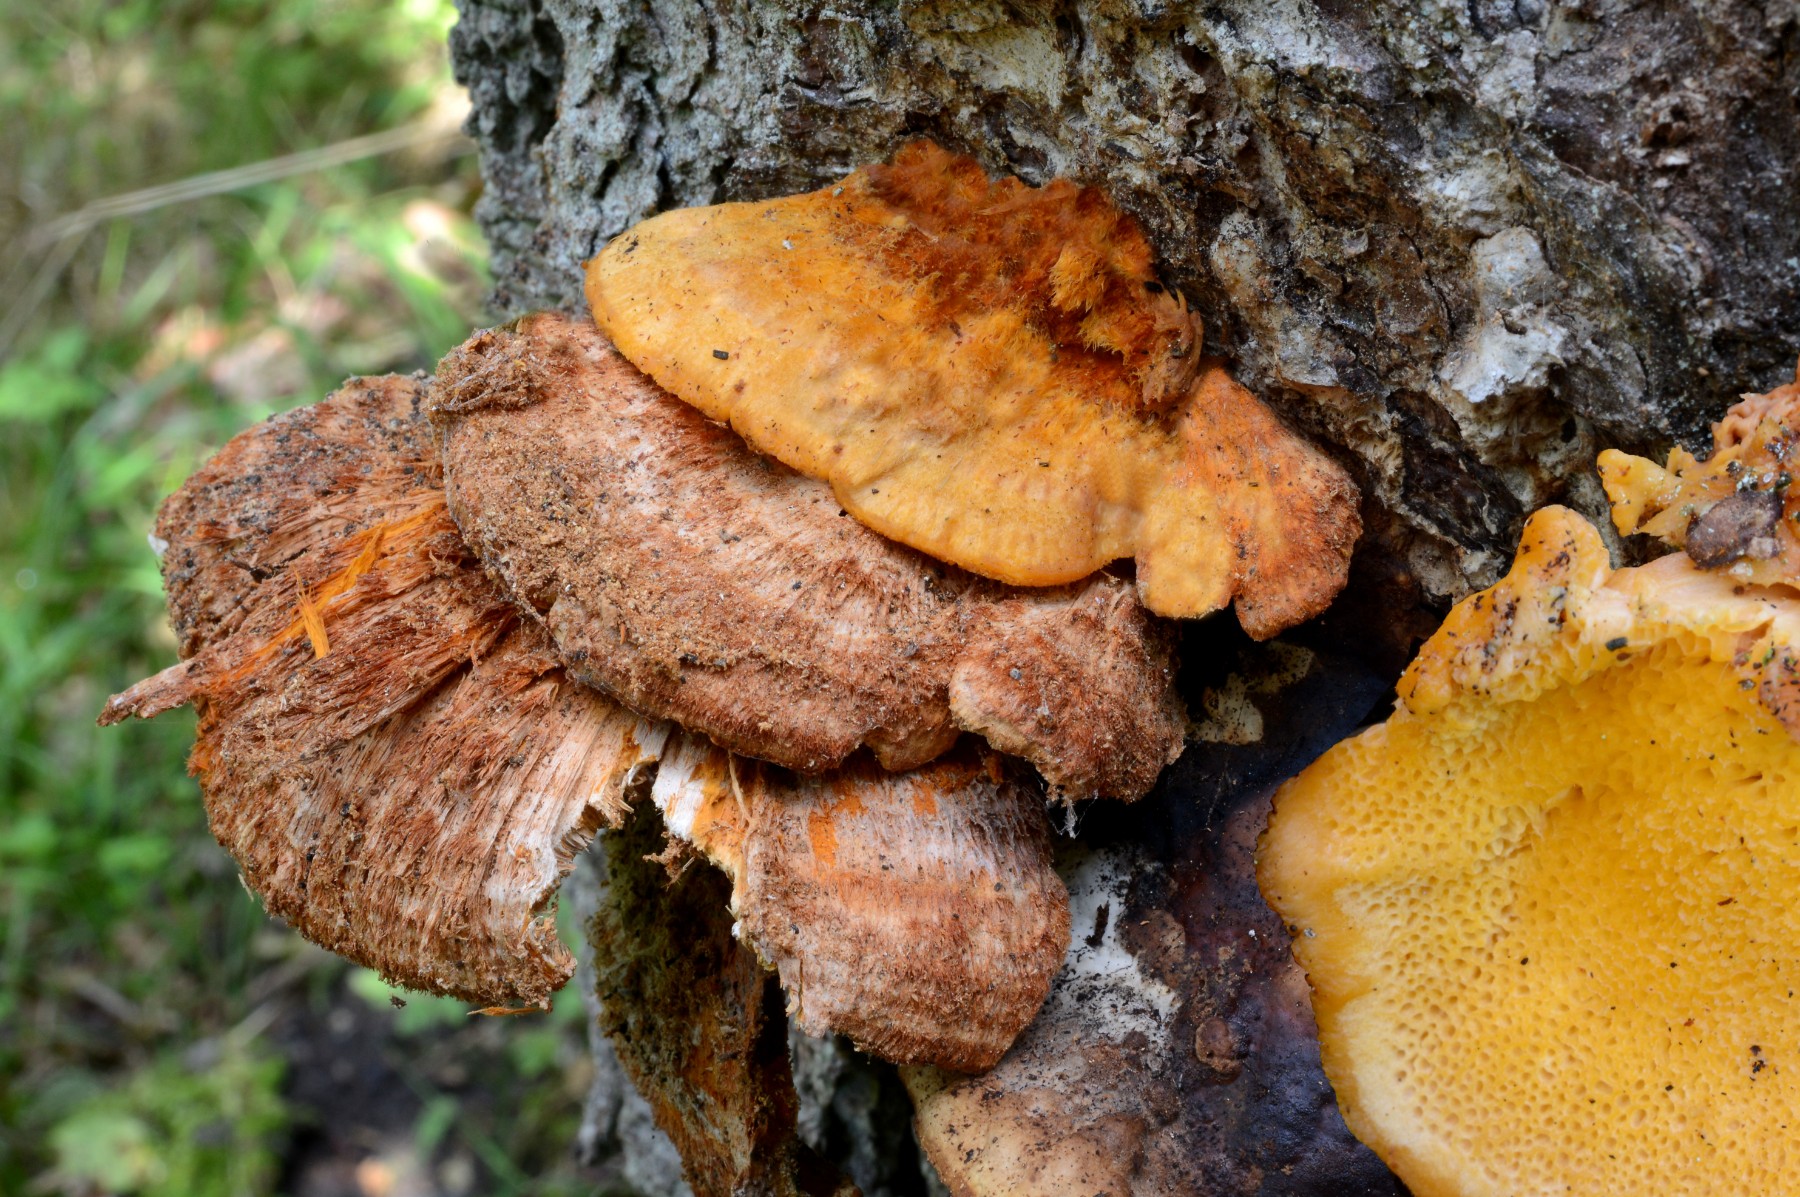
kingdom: Fungi
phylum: Basidiomycota
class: Agaricomycetes
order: Polyporales
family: Pycnoporellaceae
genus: Pycnoporellus
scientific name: Pycnoporellus fulgens
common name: flammeporesvamp
